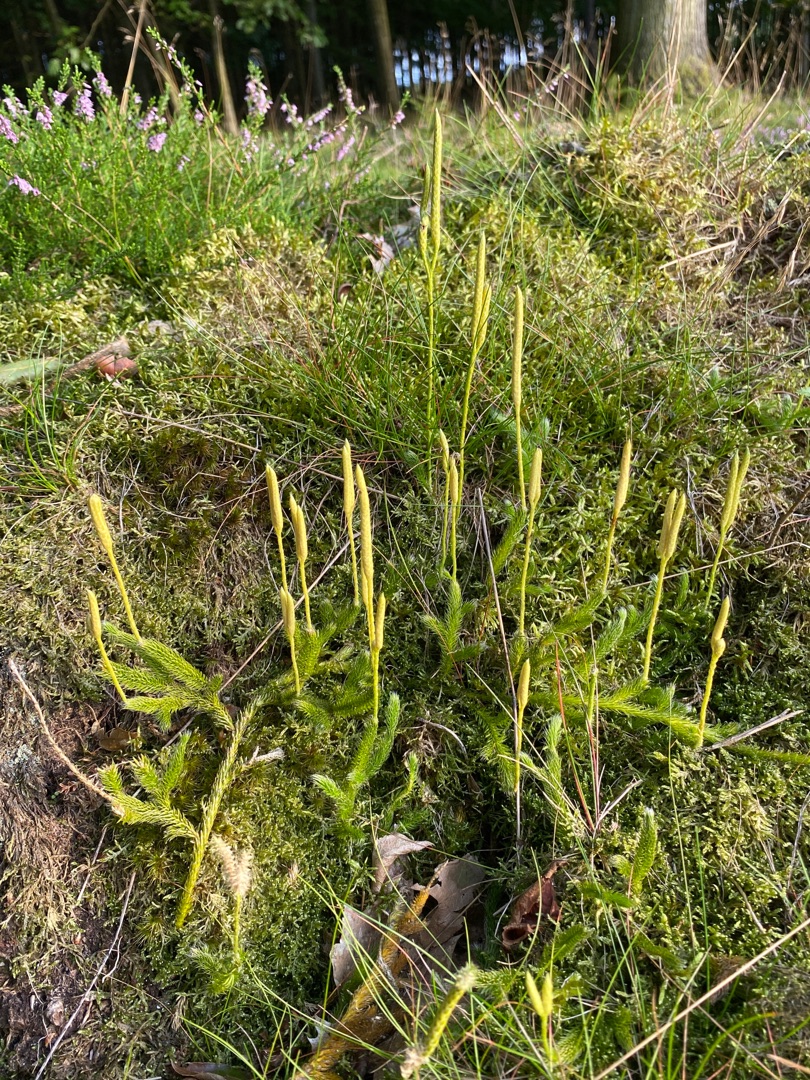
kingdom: Plantae
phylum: Tracheophyta
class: Lycopodiopsida
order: Lycopodiales
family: Lycopodiaceae
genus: Lycopodium
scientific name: Lycopodium clavatum
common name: Almindelig ulvefod
